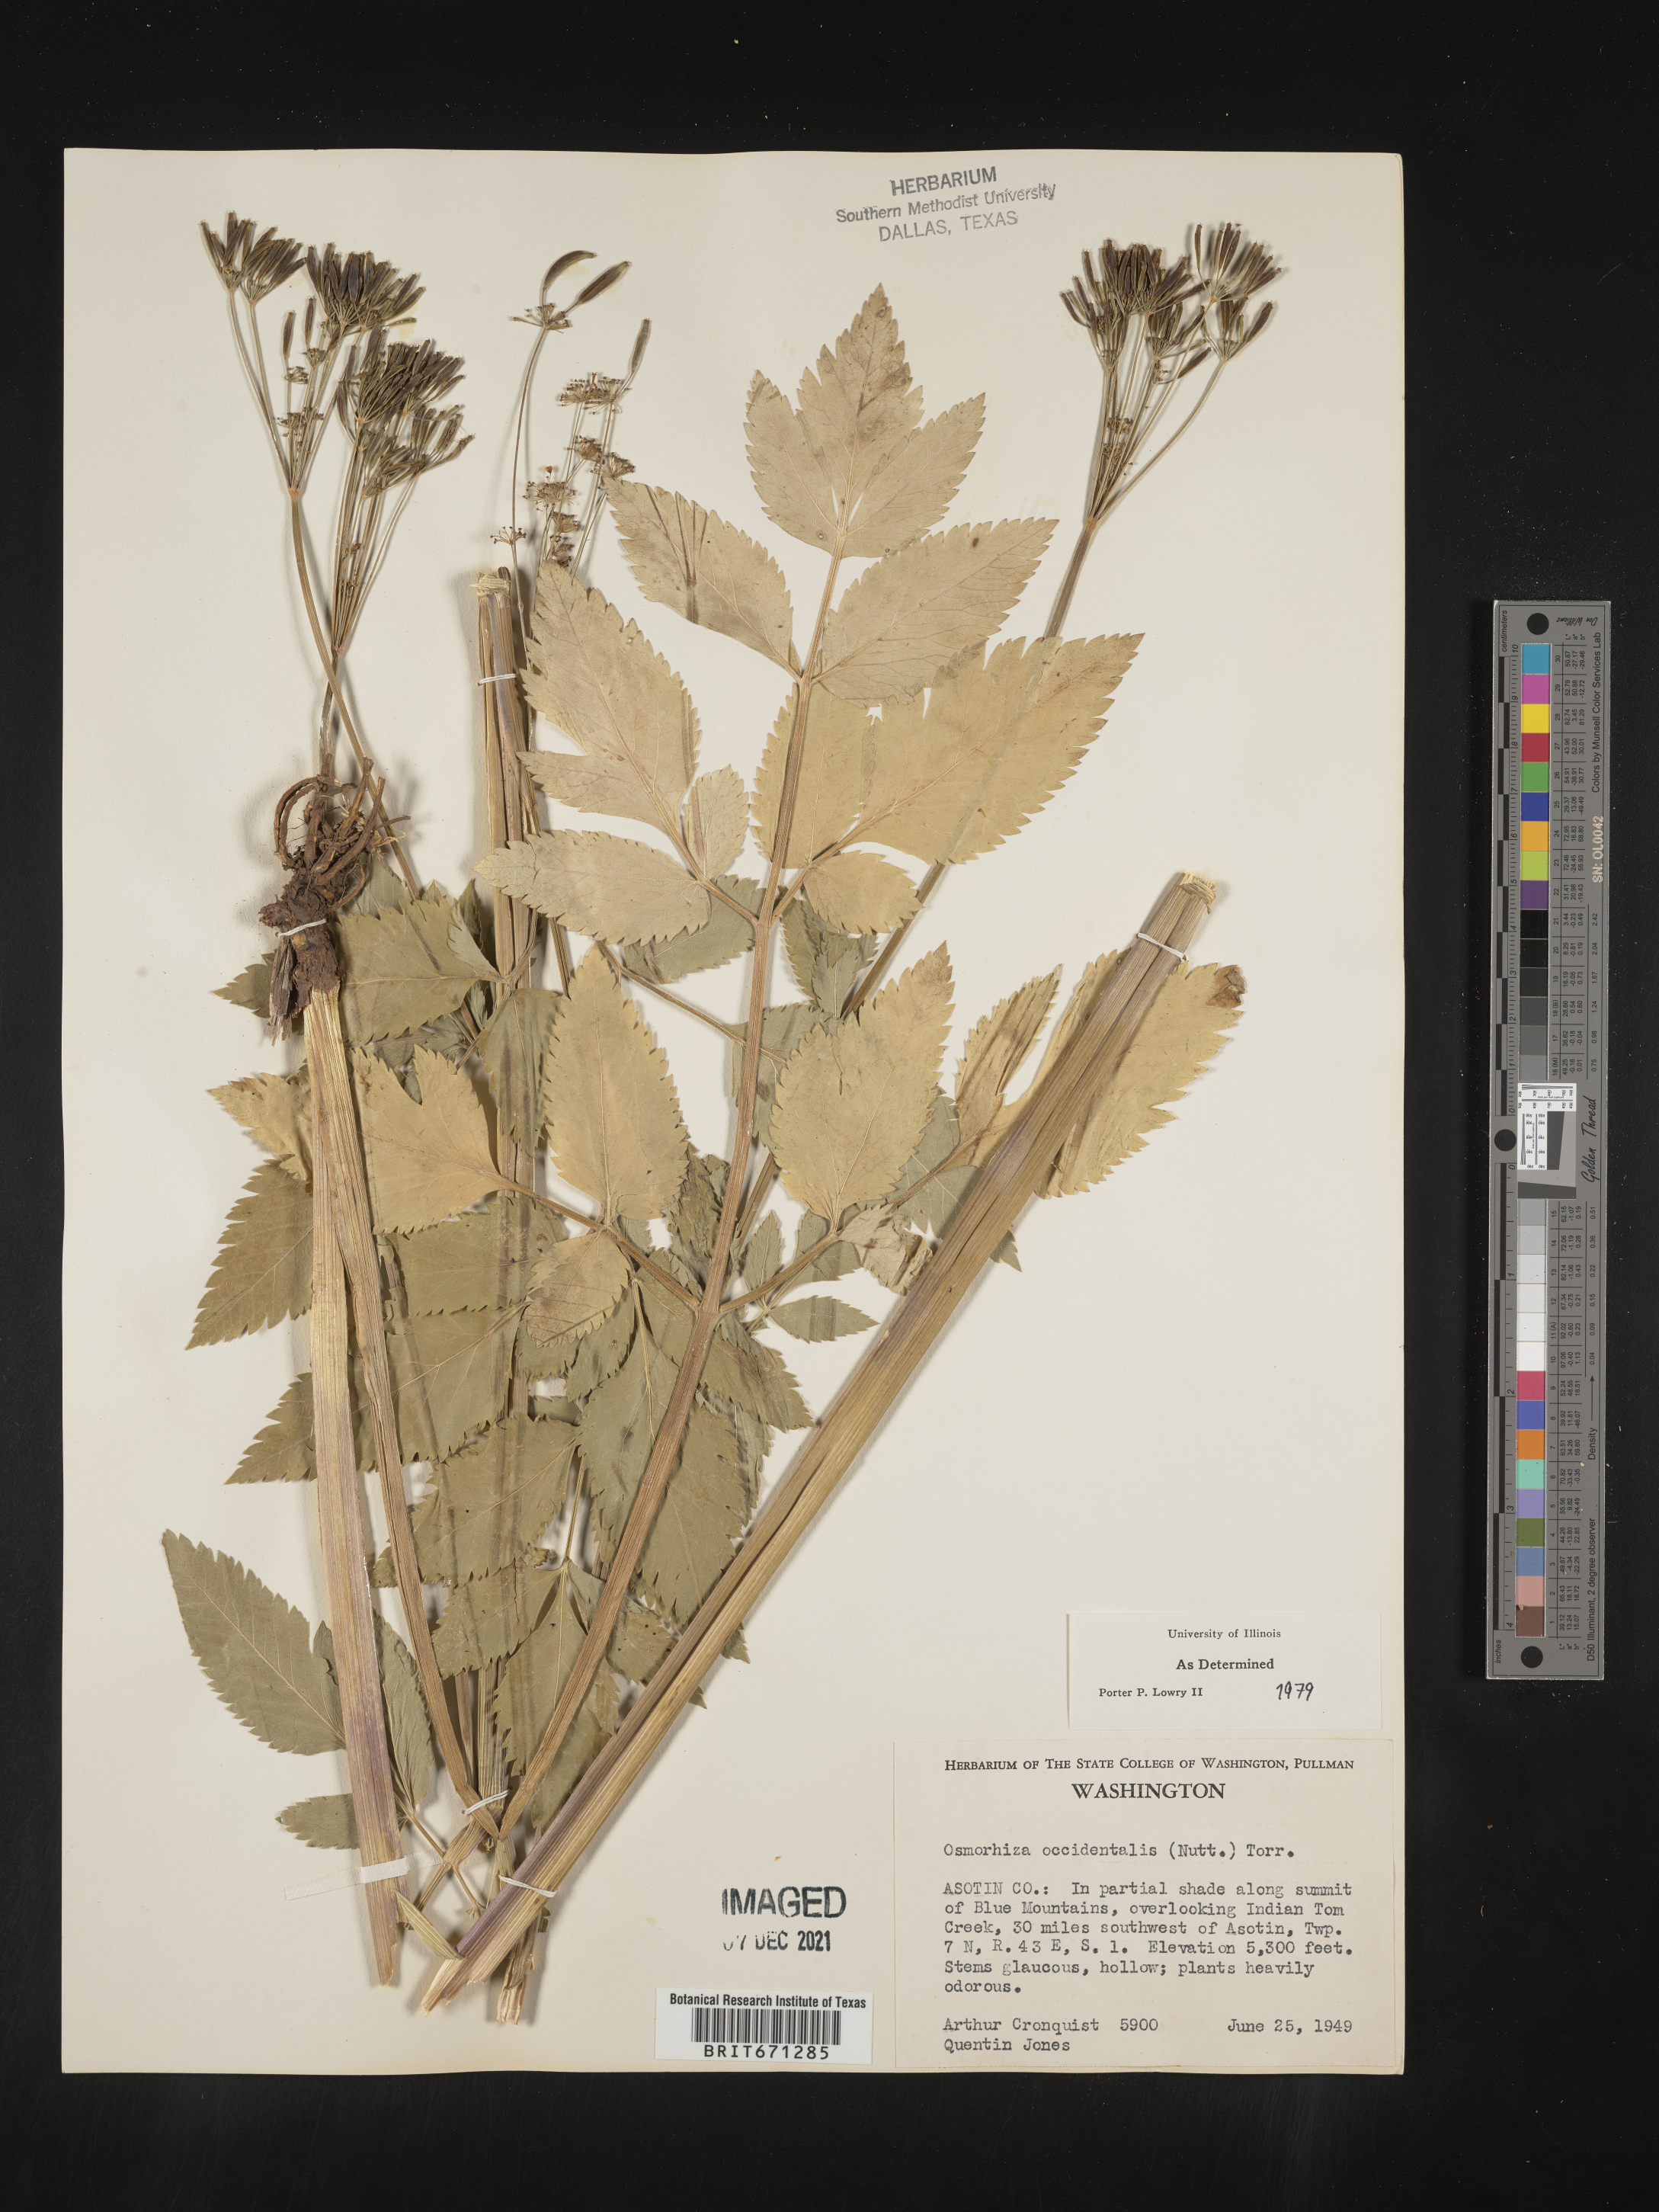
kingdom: Plantae
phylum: Tracheophyta
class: Magnoliopsida
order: Apiales
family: Apiaceae
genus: Osmorhiza
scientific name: Osmorhiza occidentalis
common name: Western sweet cicely
